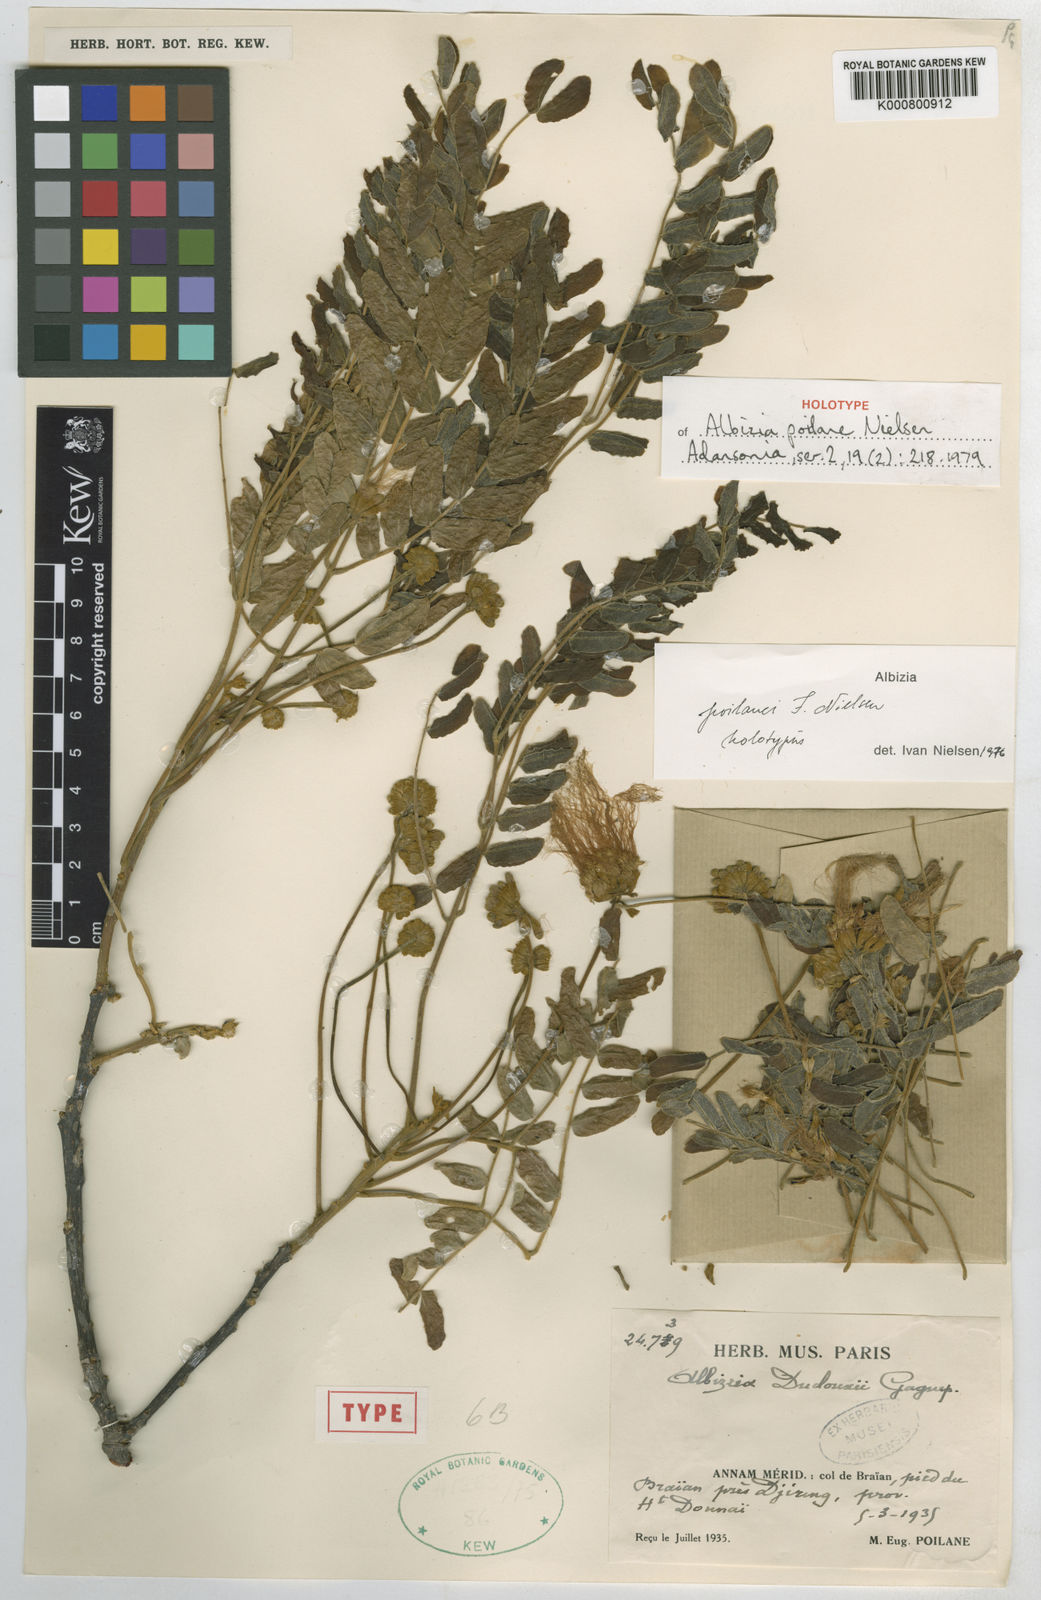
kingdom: Plantae
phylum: Tracheophyta
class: Magnoliopsida
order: Fabales
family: Fabaceae
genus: Albizia
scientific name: Albizia poilanei
